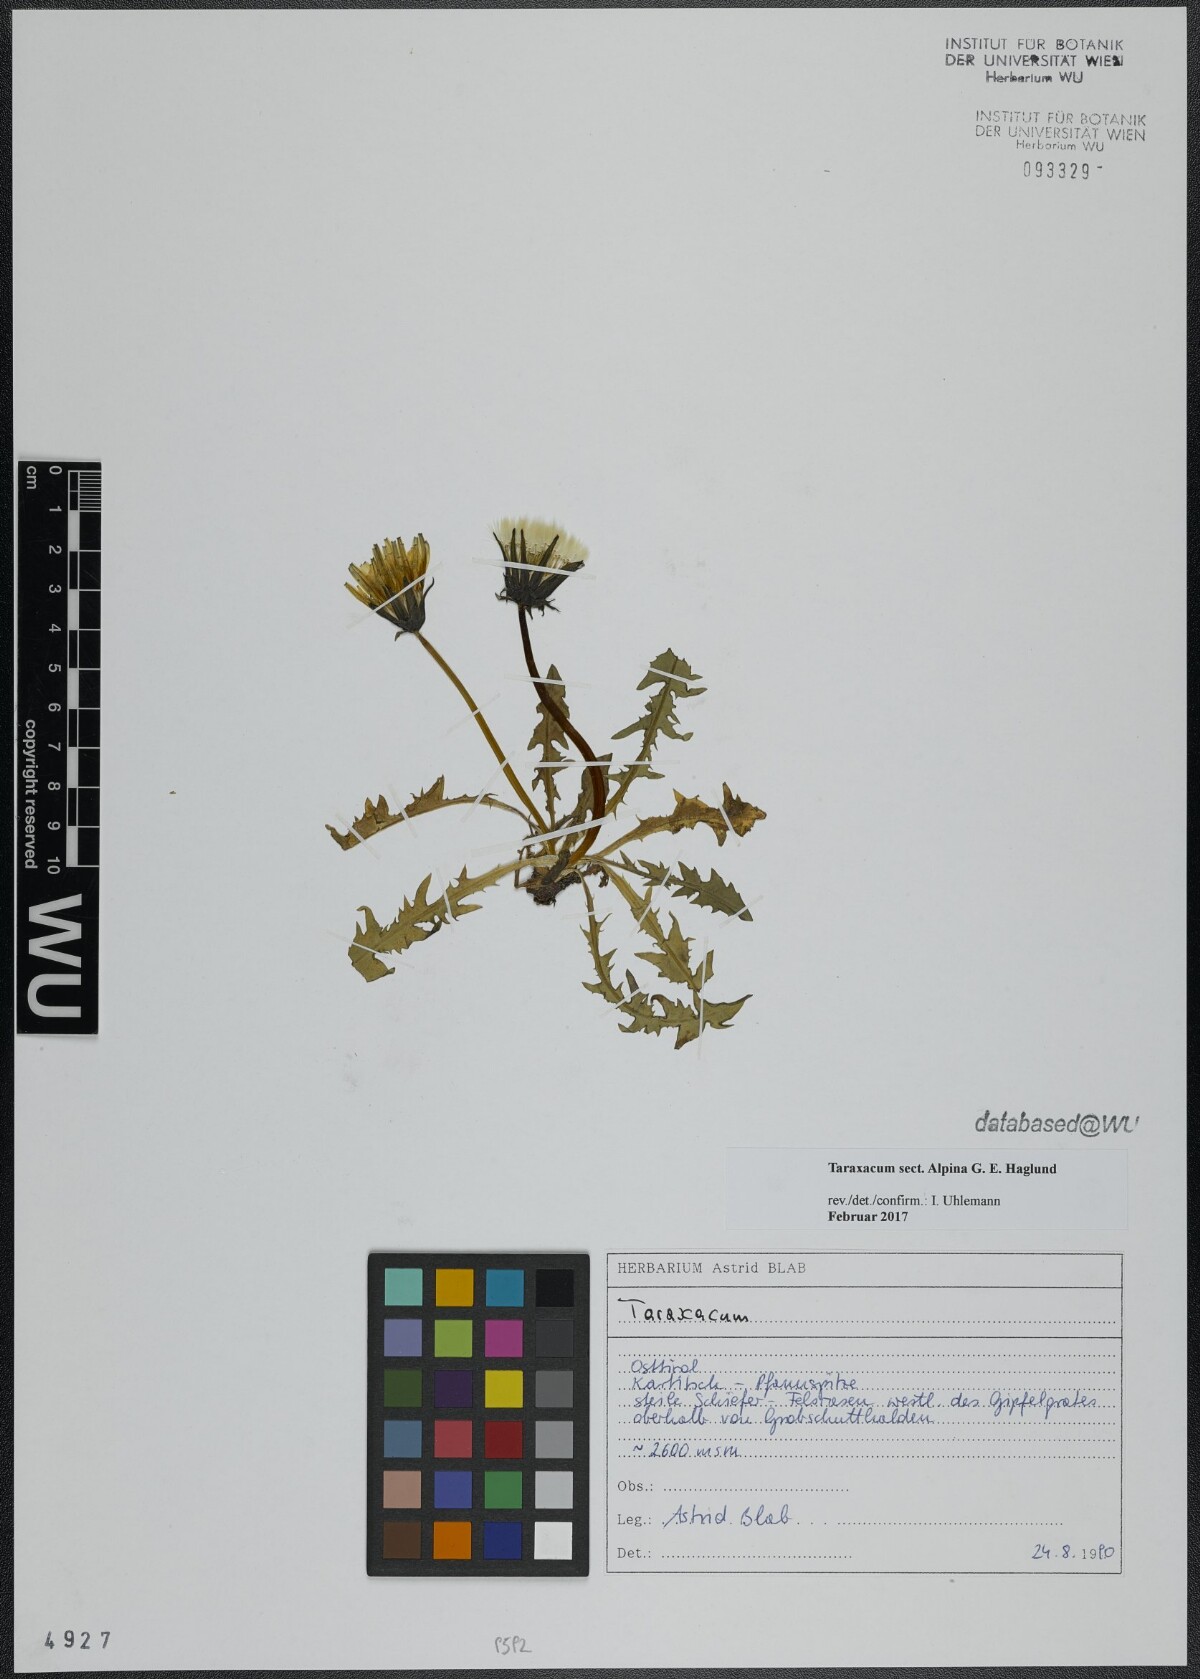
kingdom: Plantae
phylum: Tracheophyta
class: Magnoliopsida
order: Asterales
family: Asteraceae
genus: Taraxacum
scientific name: Taraxacum
